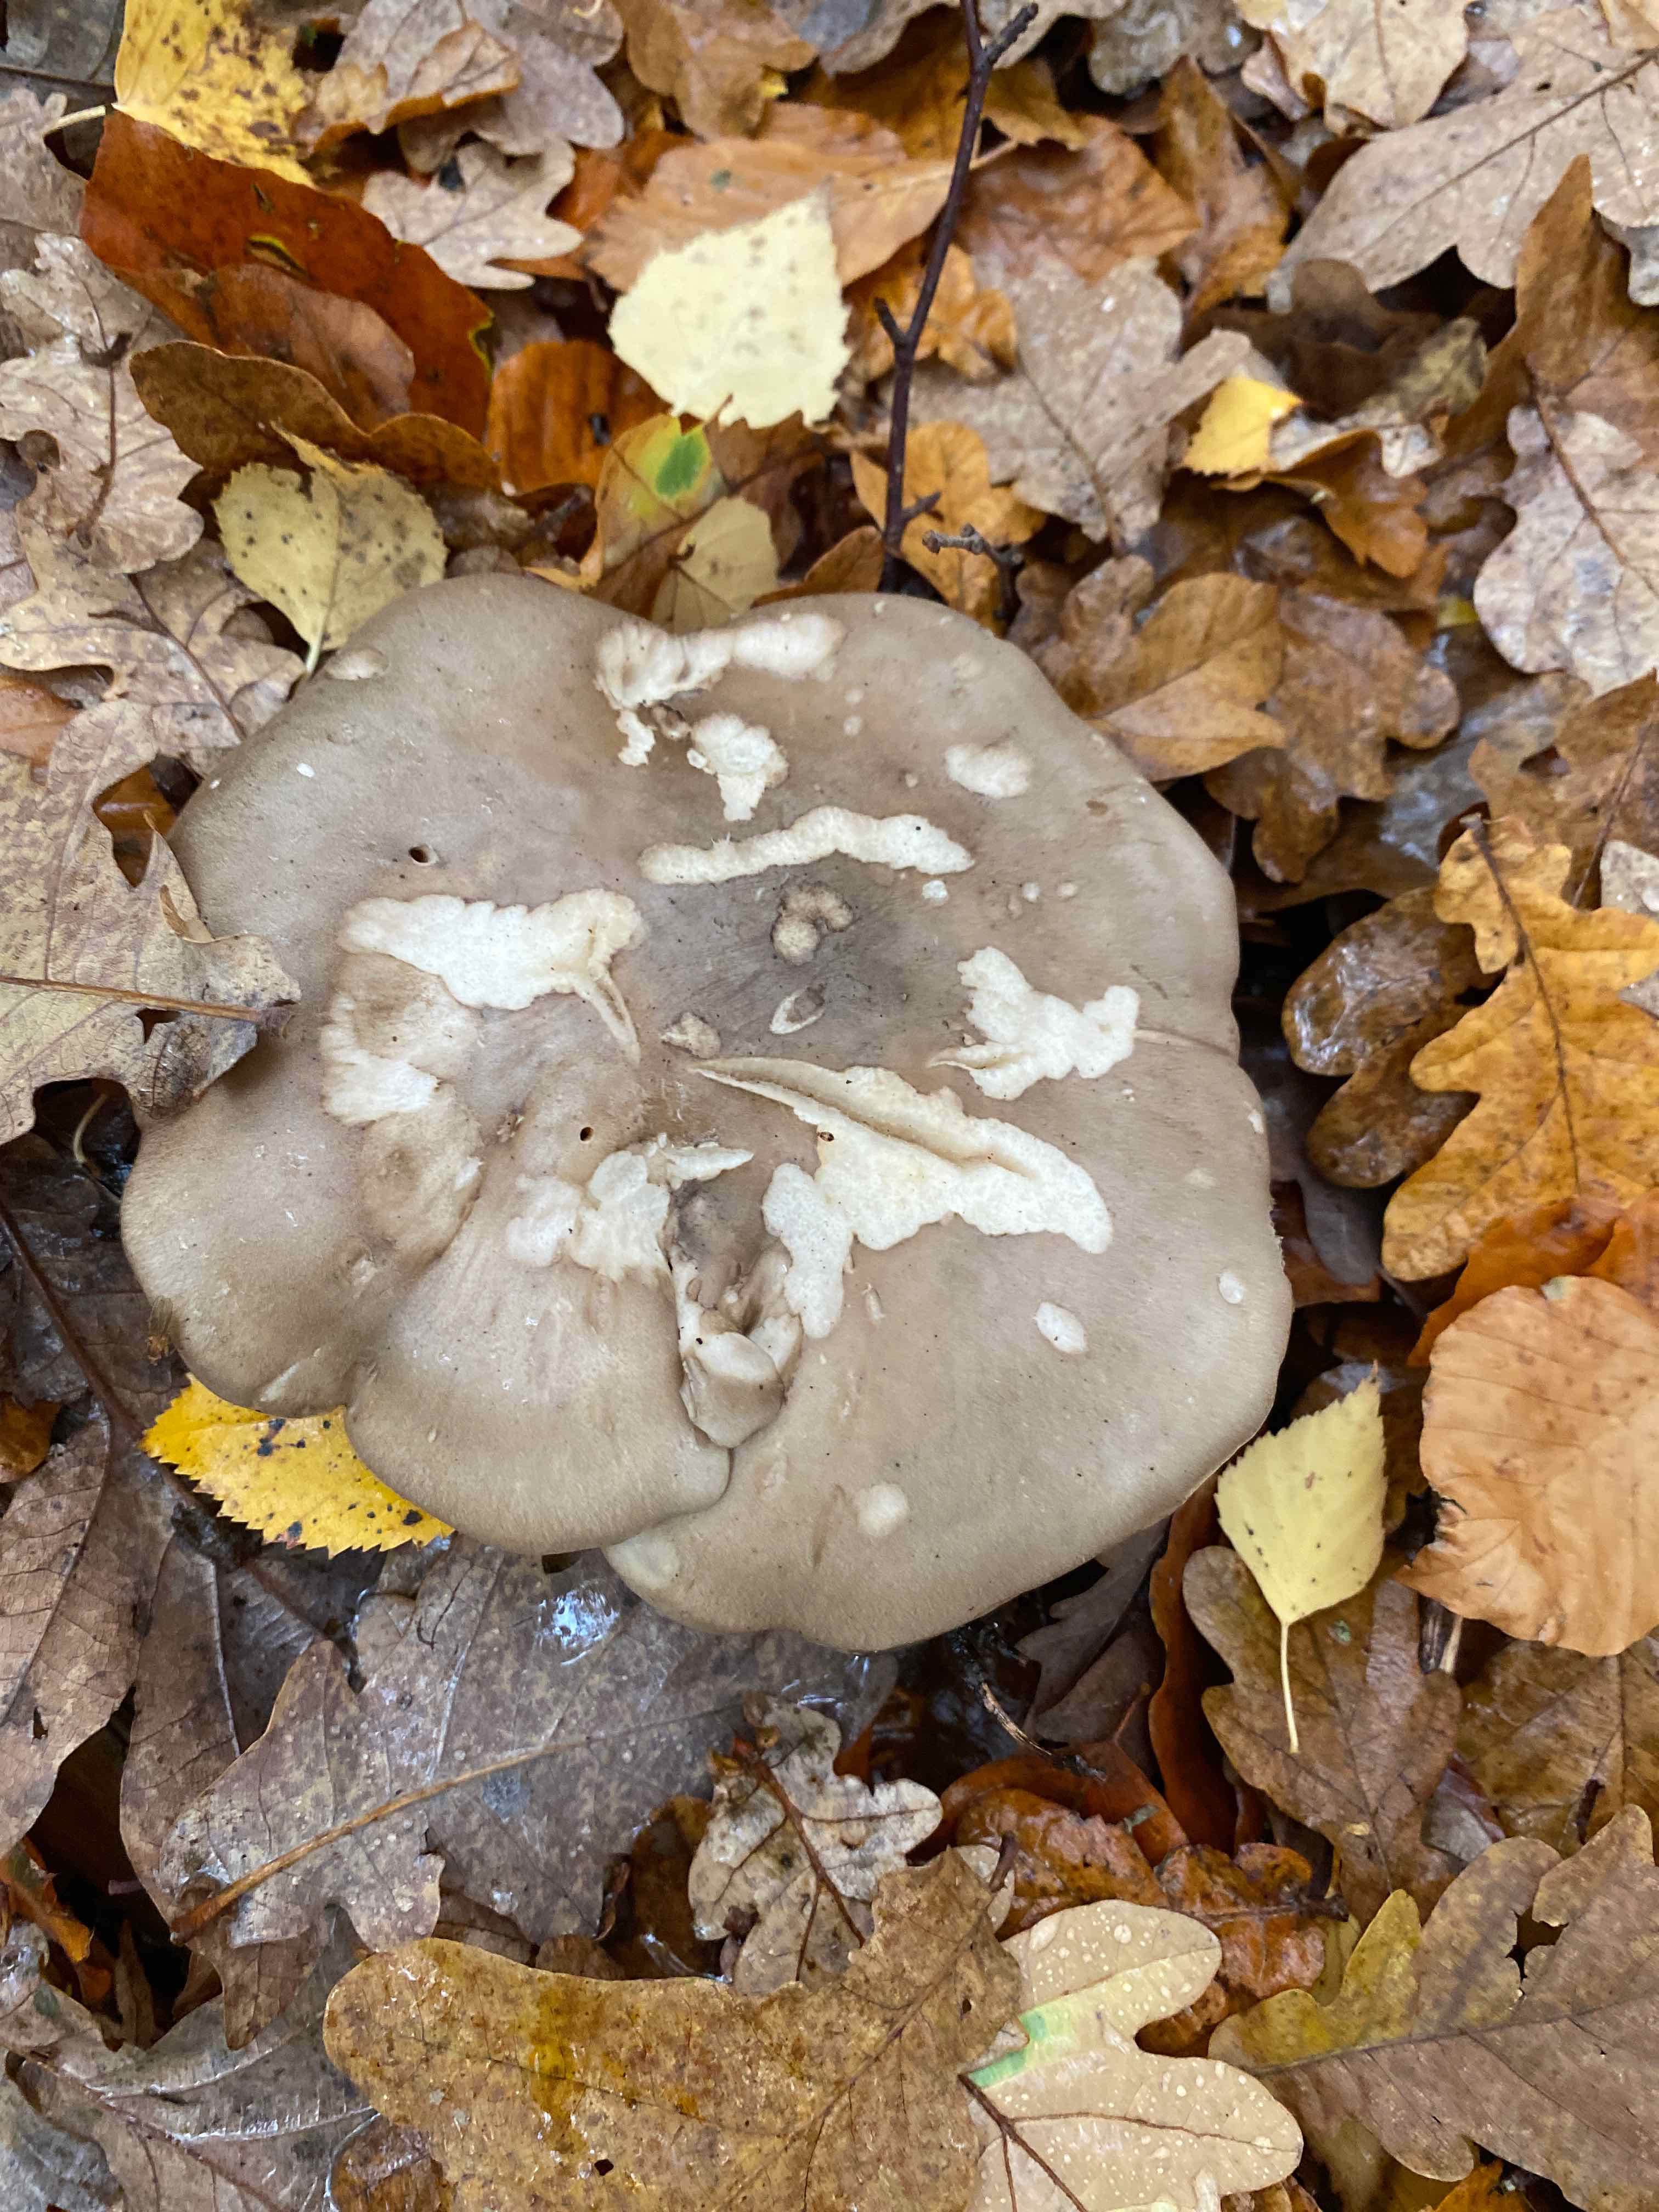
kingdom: Fungi
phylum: Basidiomycota
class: Agaricomycetes
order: Agaricales
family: Tricholomataceae
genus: Clitocybe
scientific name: Clitocybe nebularis
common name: tåge-tragthat
